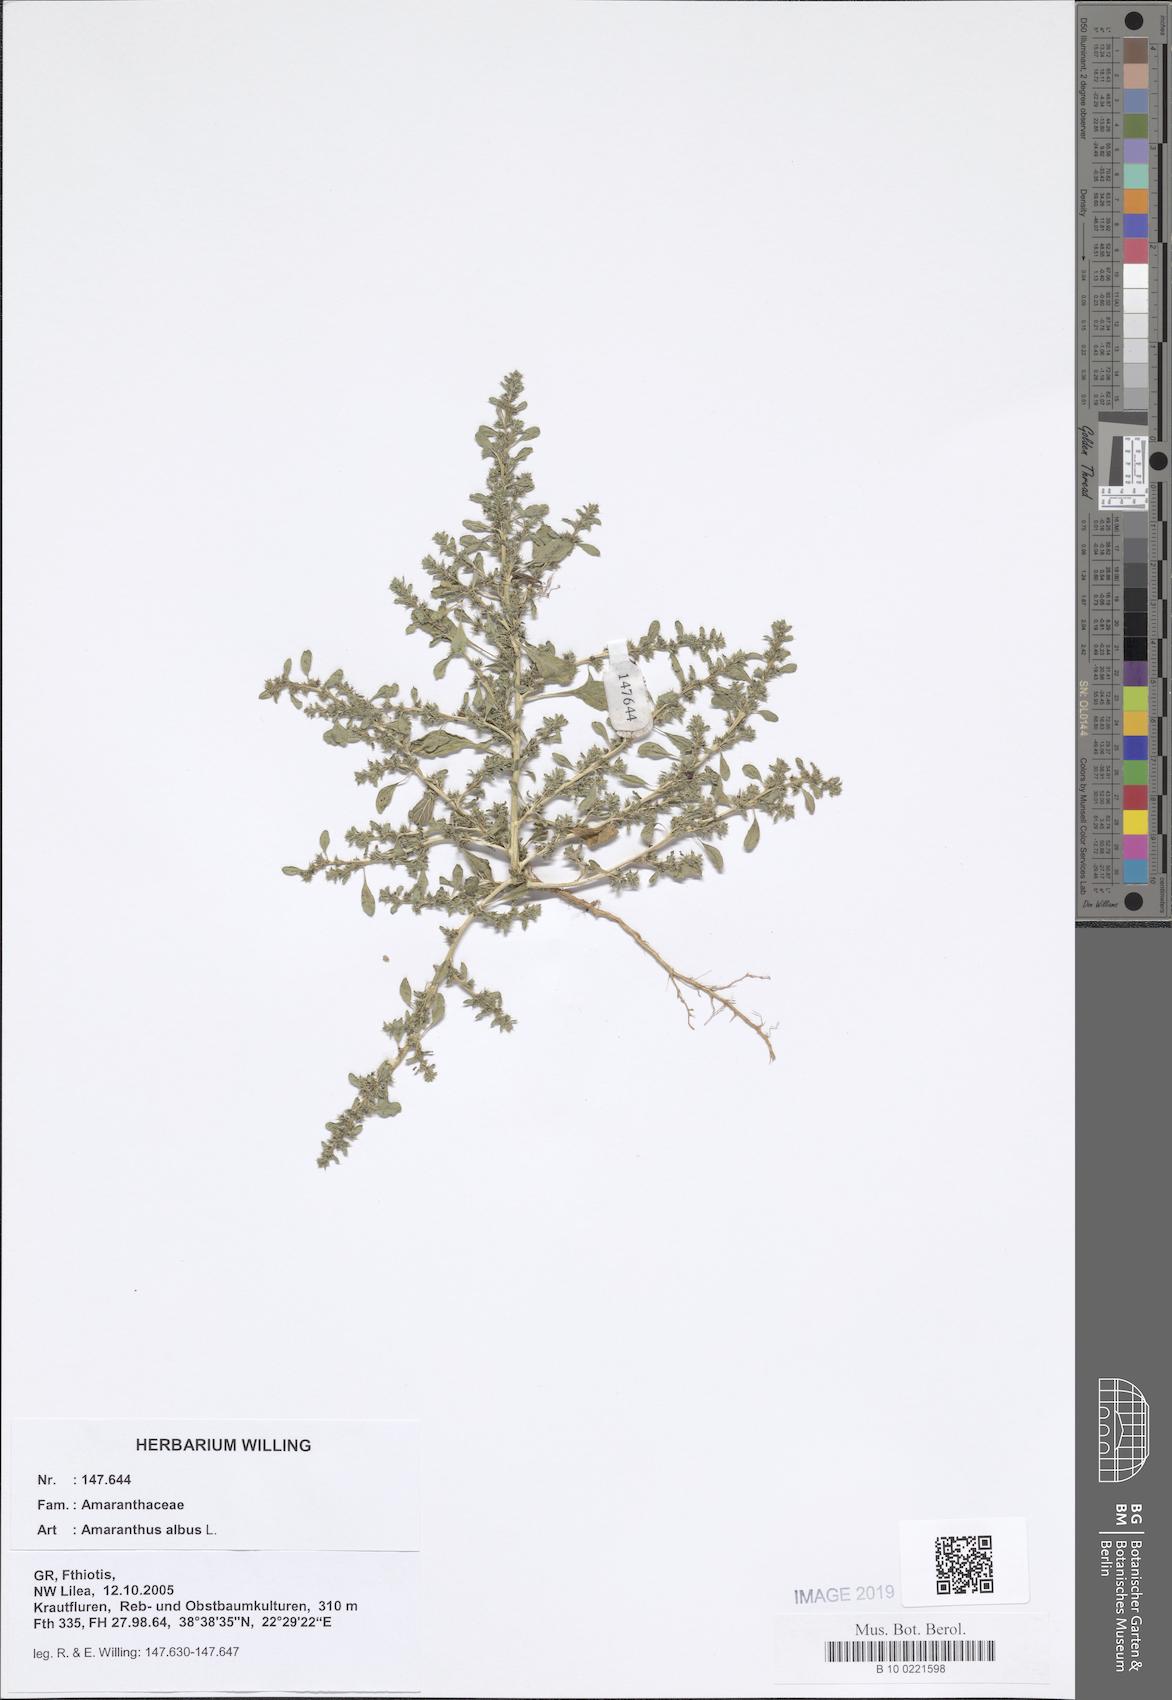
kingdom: Plantae
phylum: Tracheophyta
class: Magnoliopsida
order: Caryophyllales
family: Amaranthaceae
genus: Amaranthus
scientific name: Amaranthus albus
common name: White pigweed
